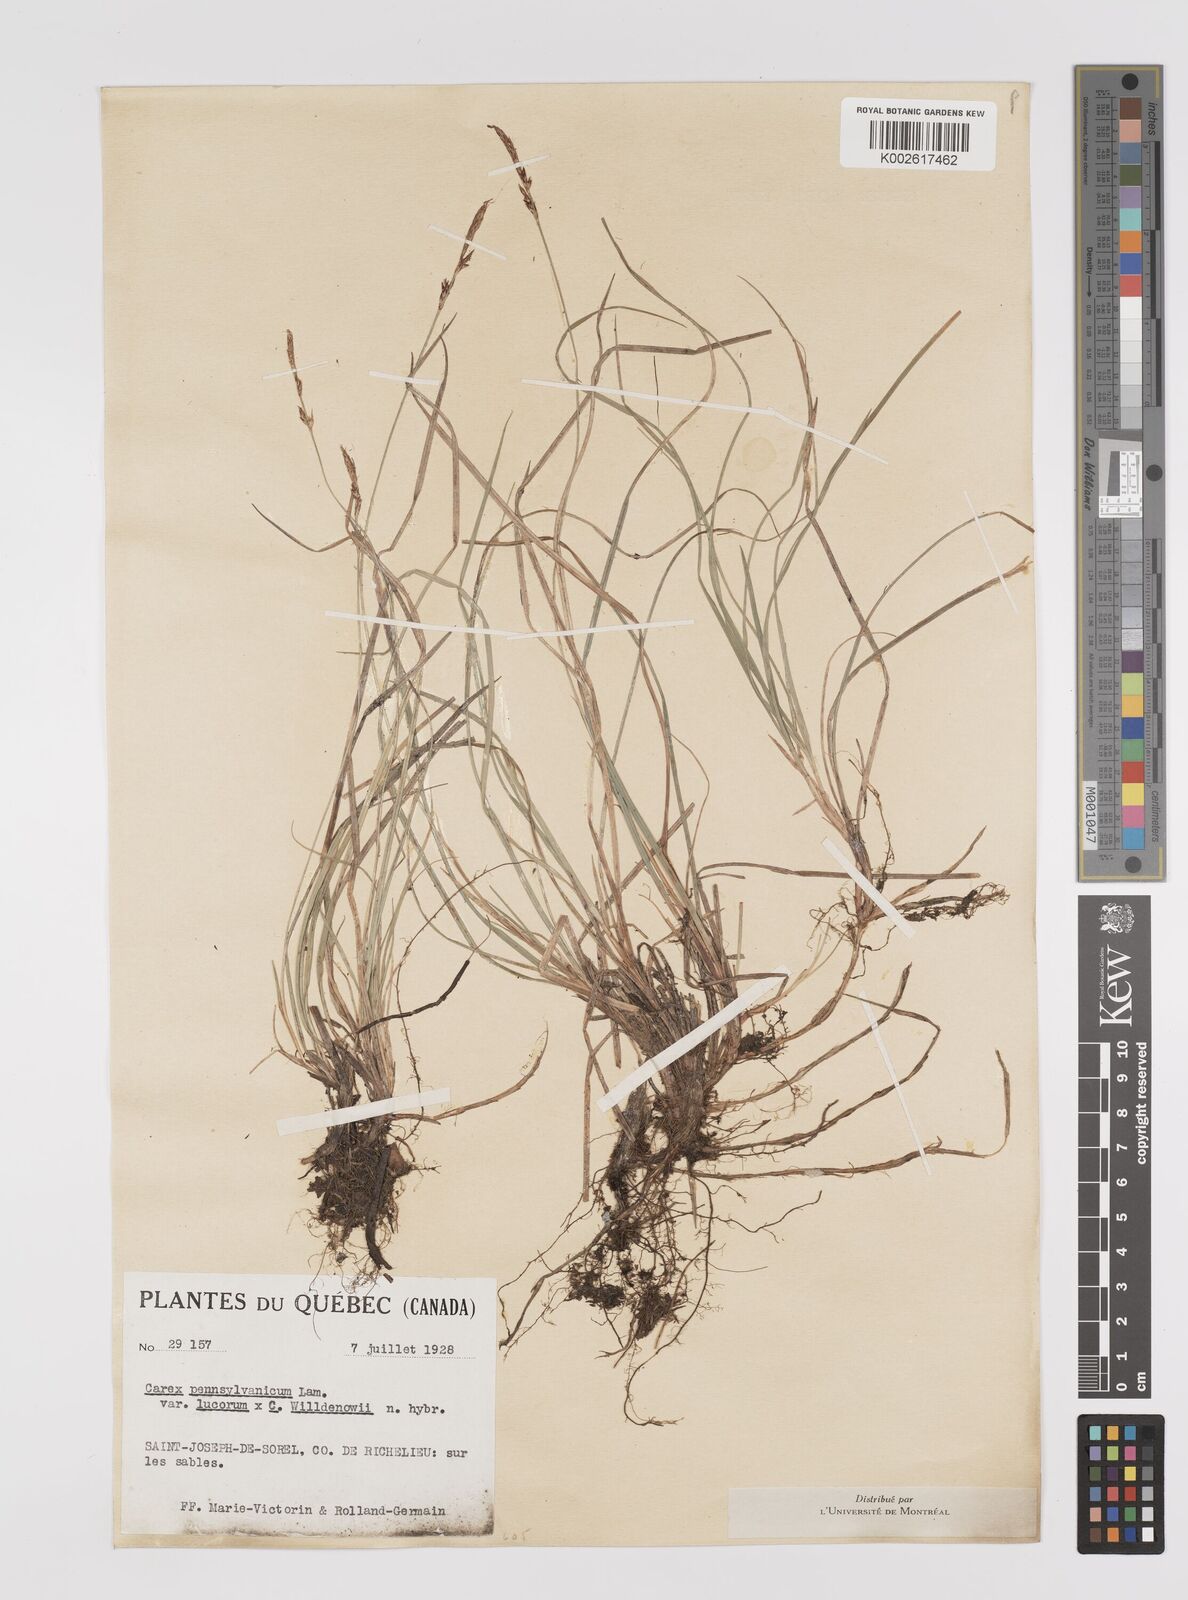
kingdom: Plantae
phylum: Tracheophyta
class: Liliopsida
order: Poales
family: Cyperaceae
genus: Carex
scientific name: Carex pensylvanica
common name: Common oak sedge
